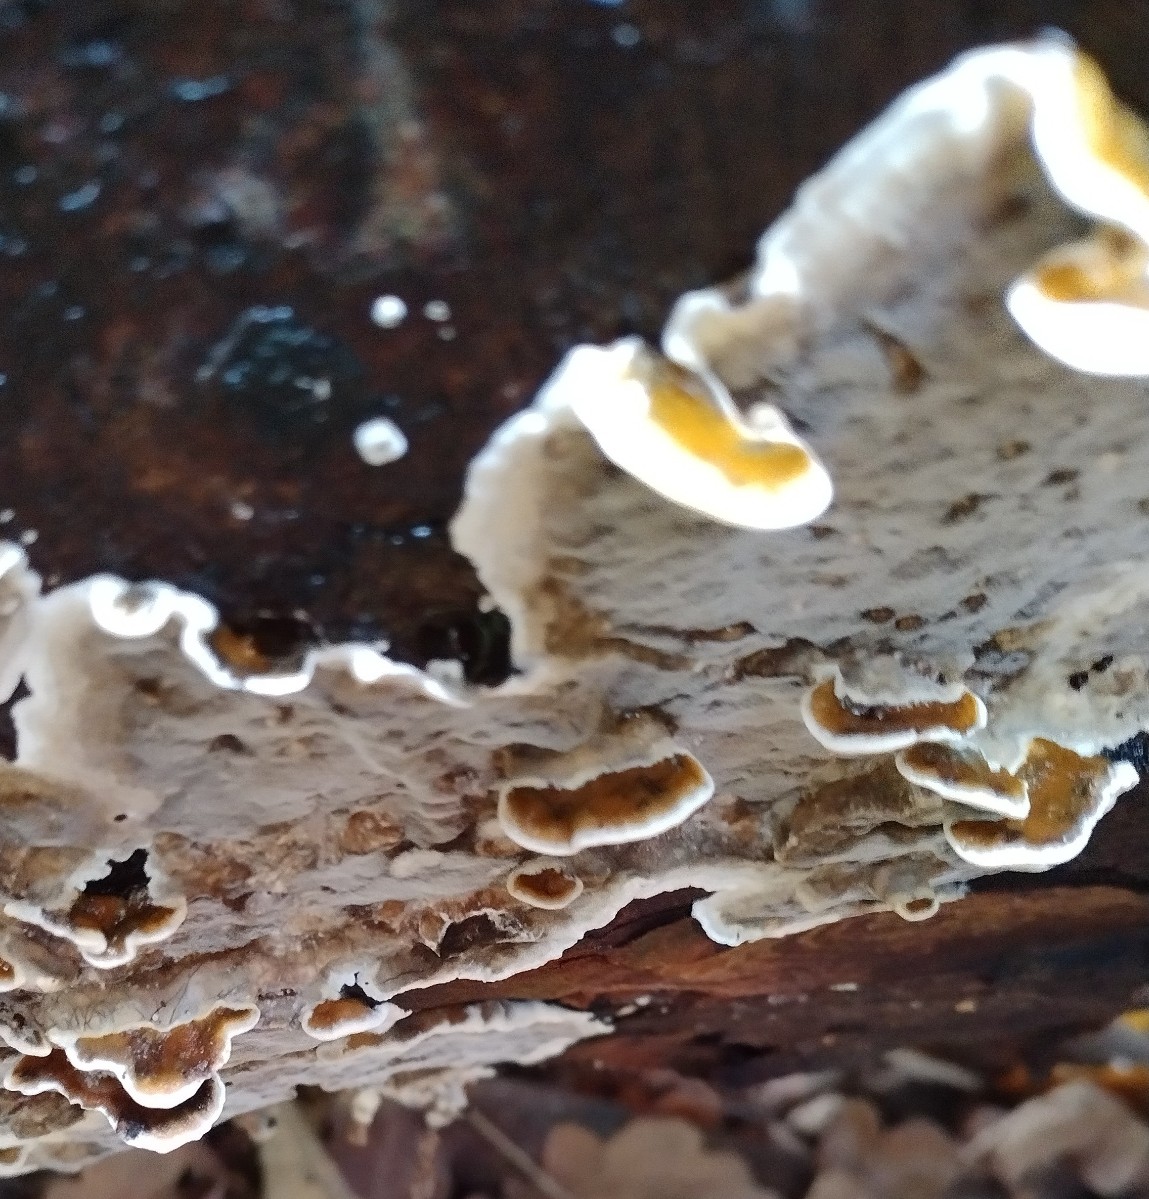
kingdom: Fungi
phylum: Basidiomycota
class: Agaricomycetes
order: Polyporales
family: Incrustoporiaceae
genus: Skeletocutis
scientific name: Skeletocutis nemoralis
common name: stor krystalporesvamp
